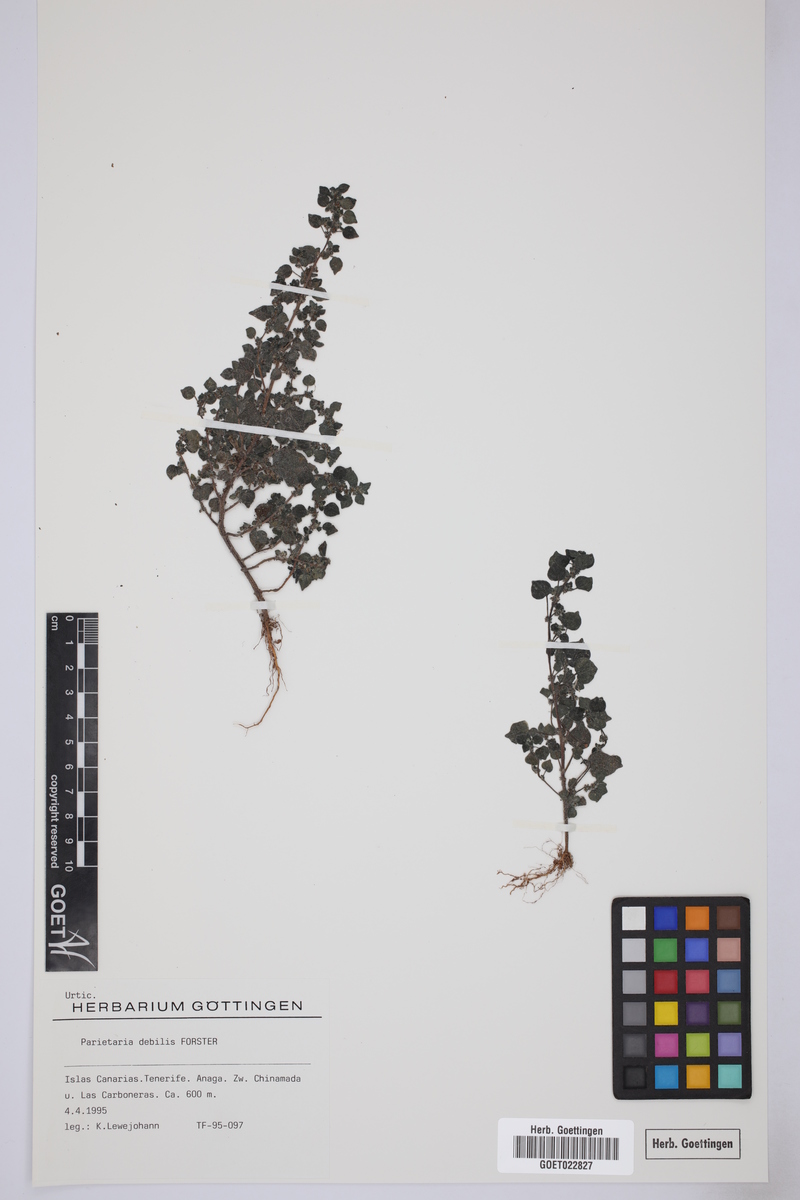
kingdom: Plantae
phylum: Tracheophyta
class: Magnoliopsida
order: Rosales
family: Urticaceae
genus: Parietaria
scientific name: Parietaria debilis
